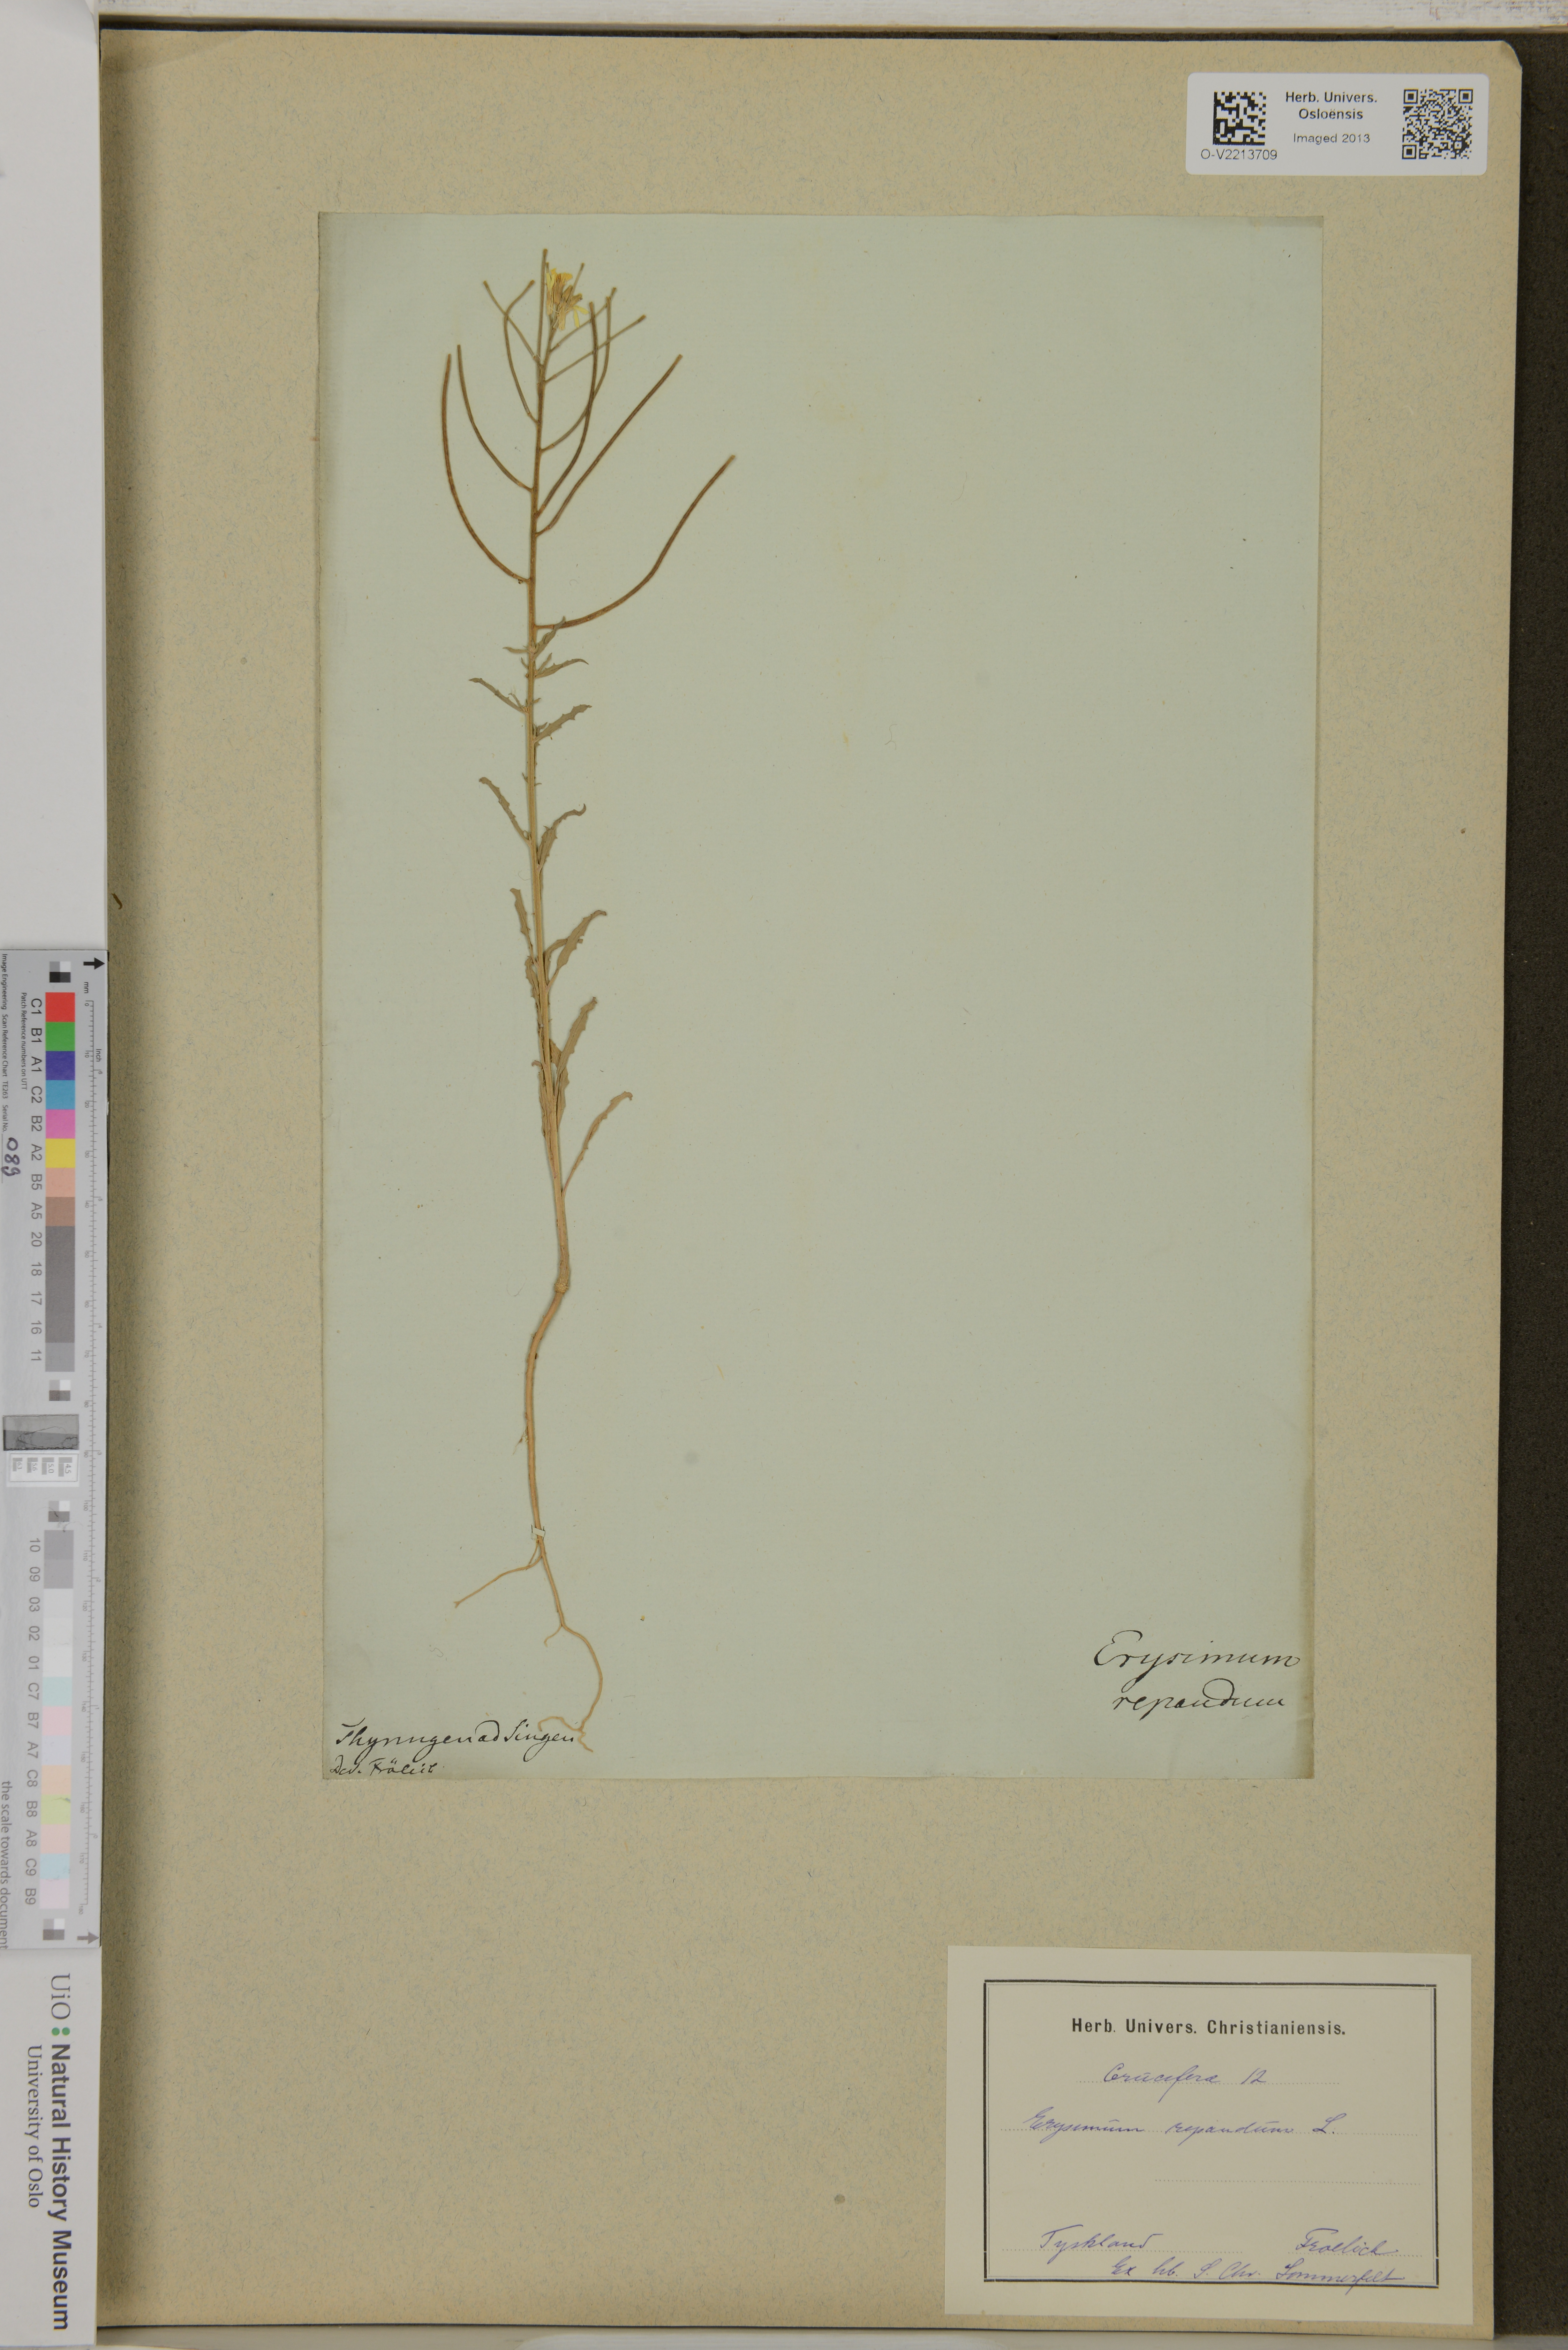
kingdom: Plantae
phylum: Tracheophyta
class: Magnoliopsida
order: Brassicales
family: Brassicaceae
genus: Erysimum
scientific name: Erysimum
